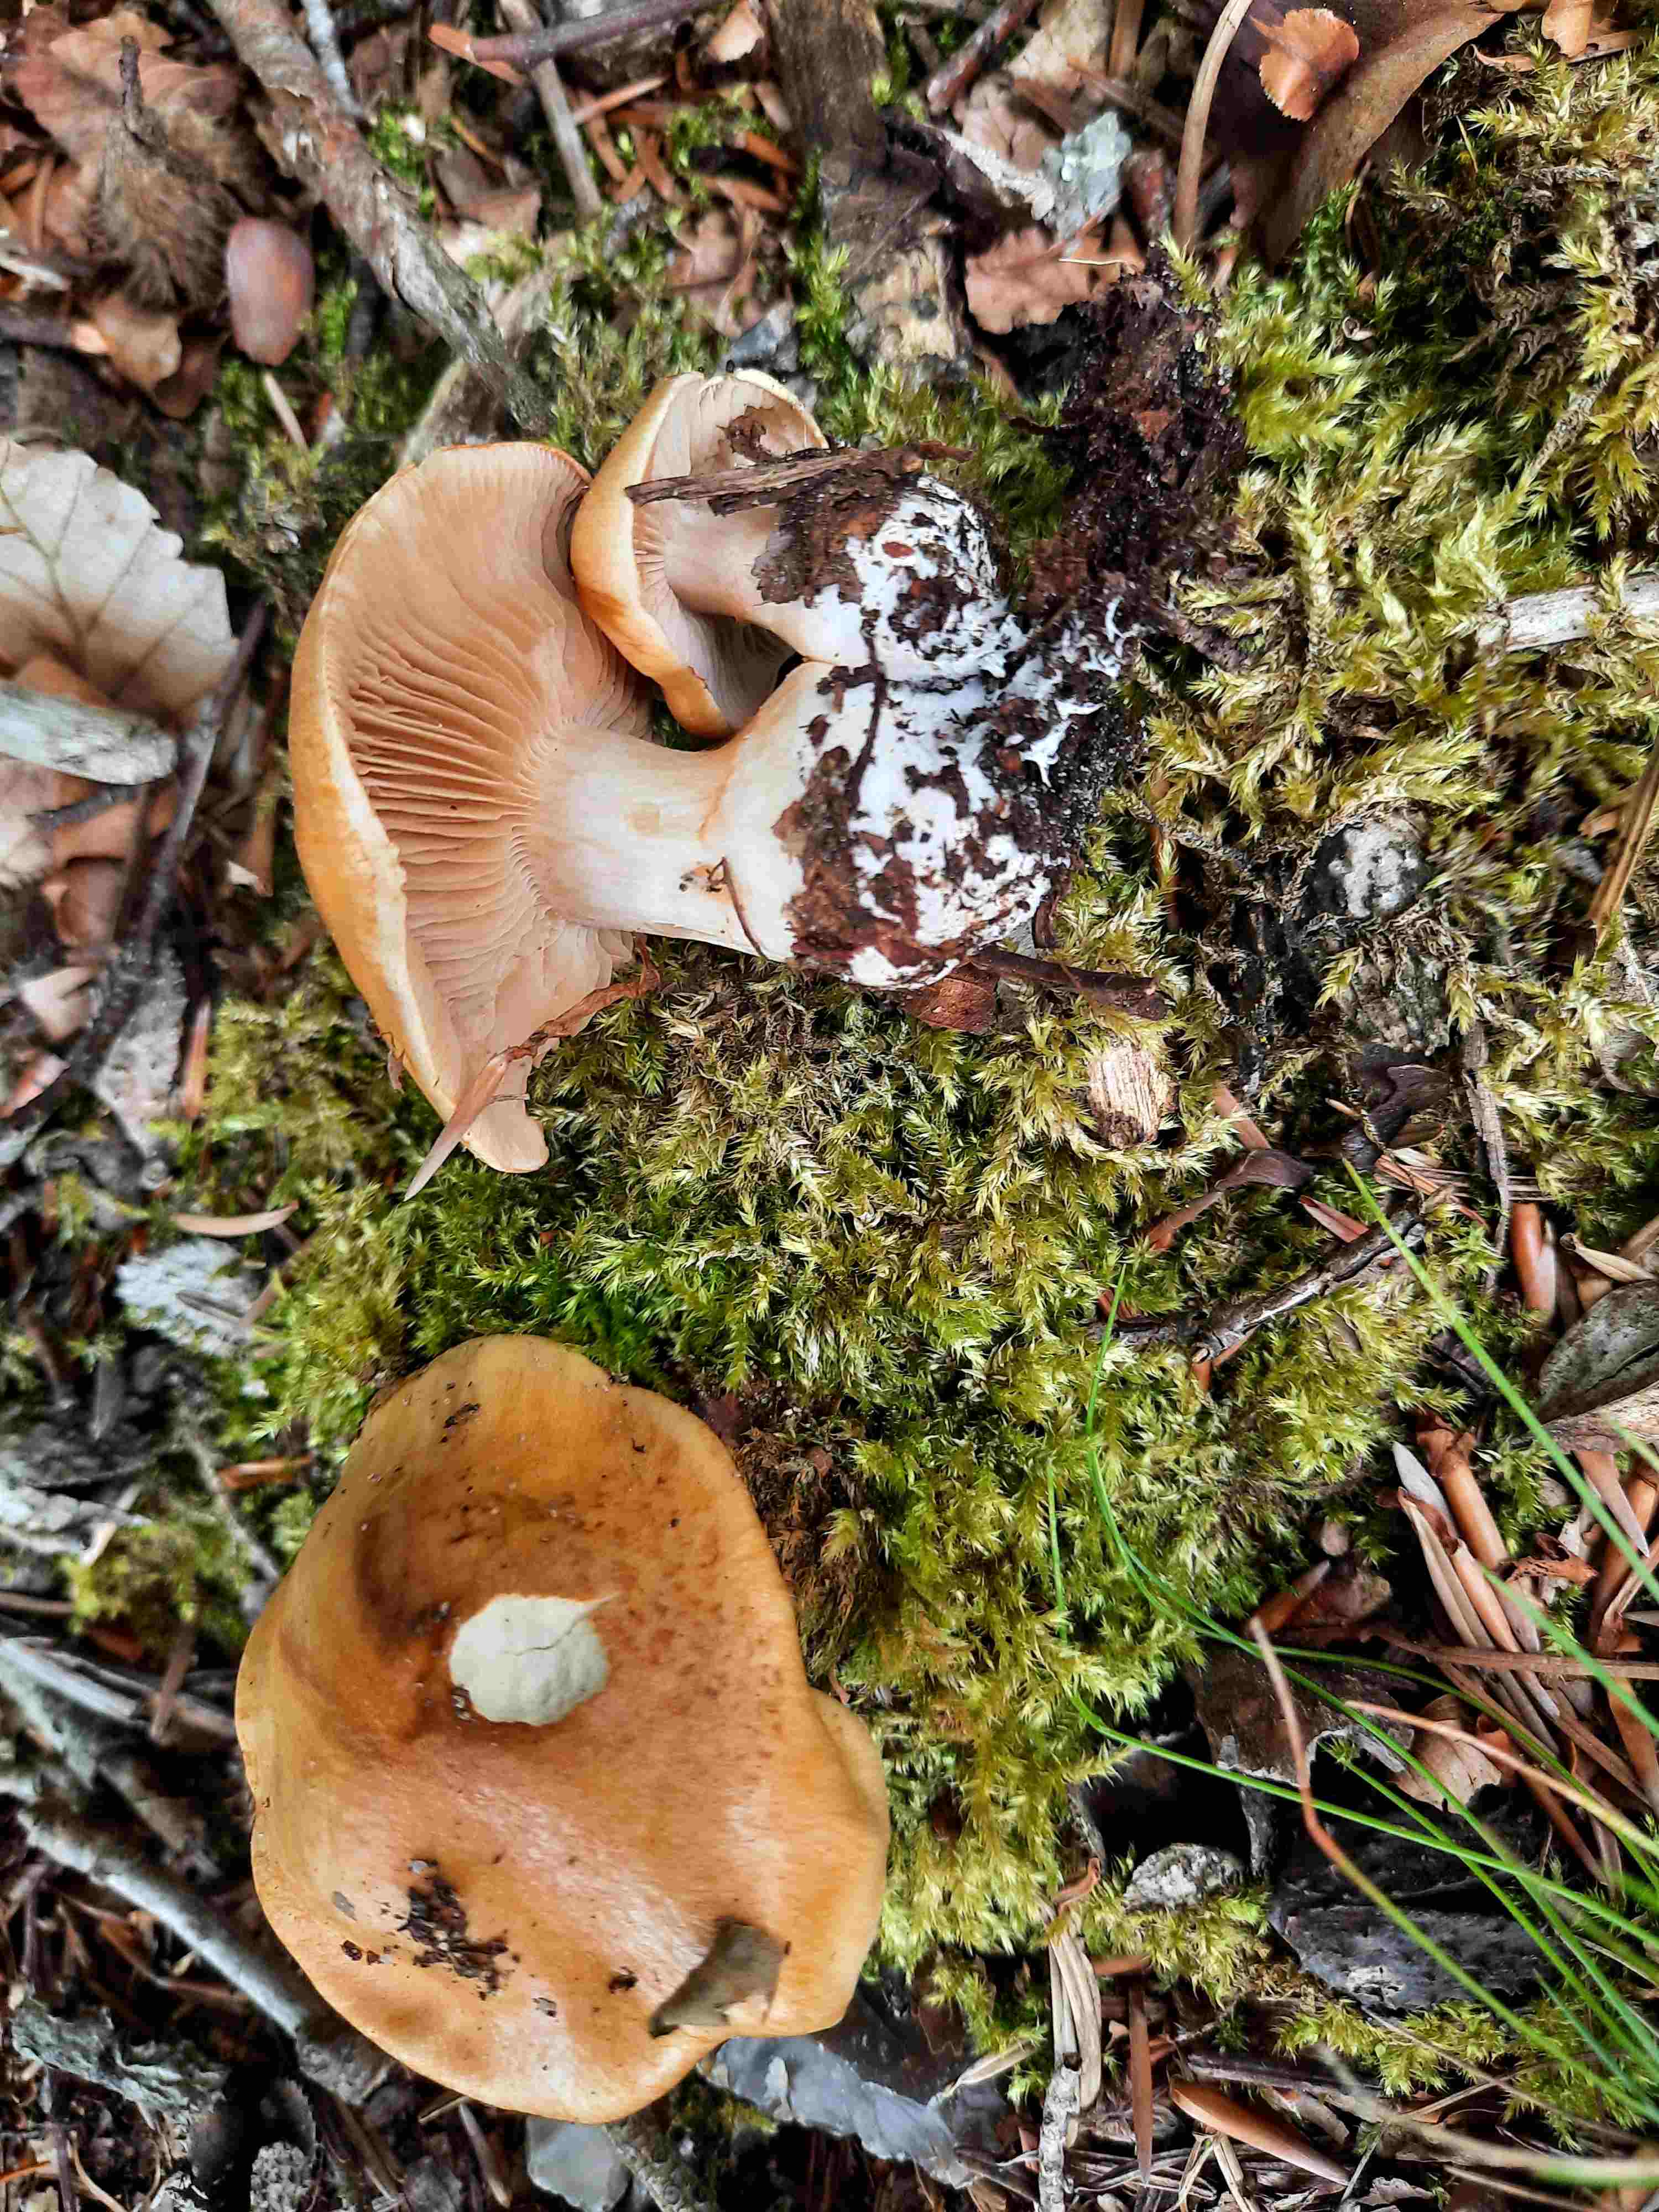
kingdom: Fungi
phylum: Basidiomycota
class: Agaricomycetes
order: Agaricales
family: Cortinariaceae
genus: Thaxterogaster
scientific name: Thaxterogaster emollitus
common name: besk slørhat
